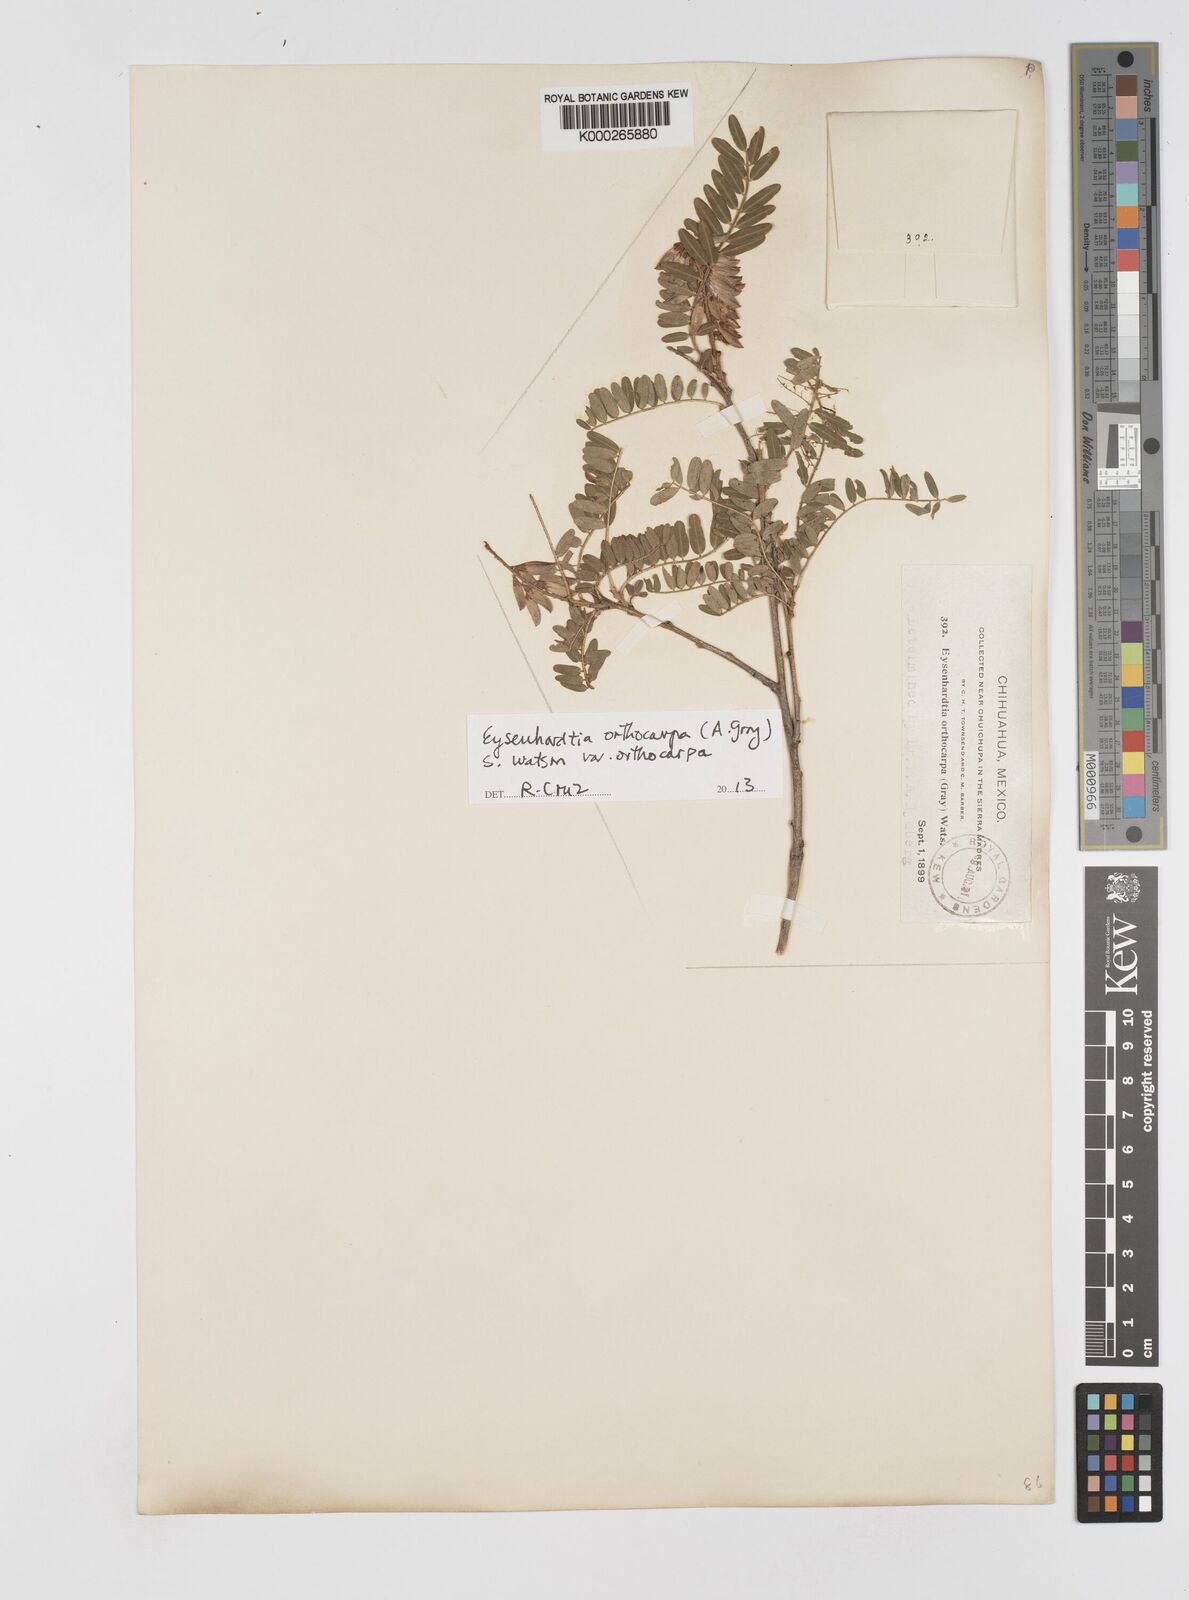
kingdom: Plantae
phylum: Tracheophyta
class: Magnoliopsida
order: Fabales
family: Fabaceae
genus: Eysenhardtia
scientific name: Eysenhardtia orthocarpa
